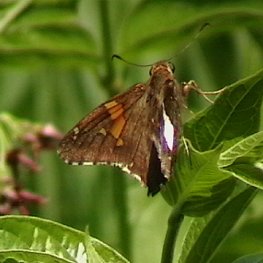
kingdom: Animalia
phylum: Arthropoda
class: Insecta
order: Lepidoptera
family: Hesperiidae
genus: Epargyreus
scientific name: Epargyreus clarus
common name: Silver-spotted Skipper
